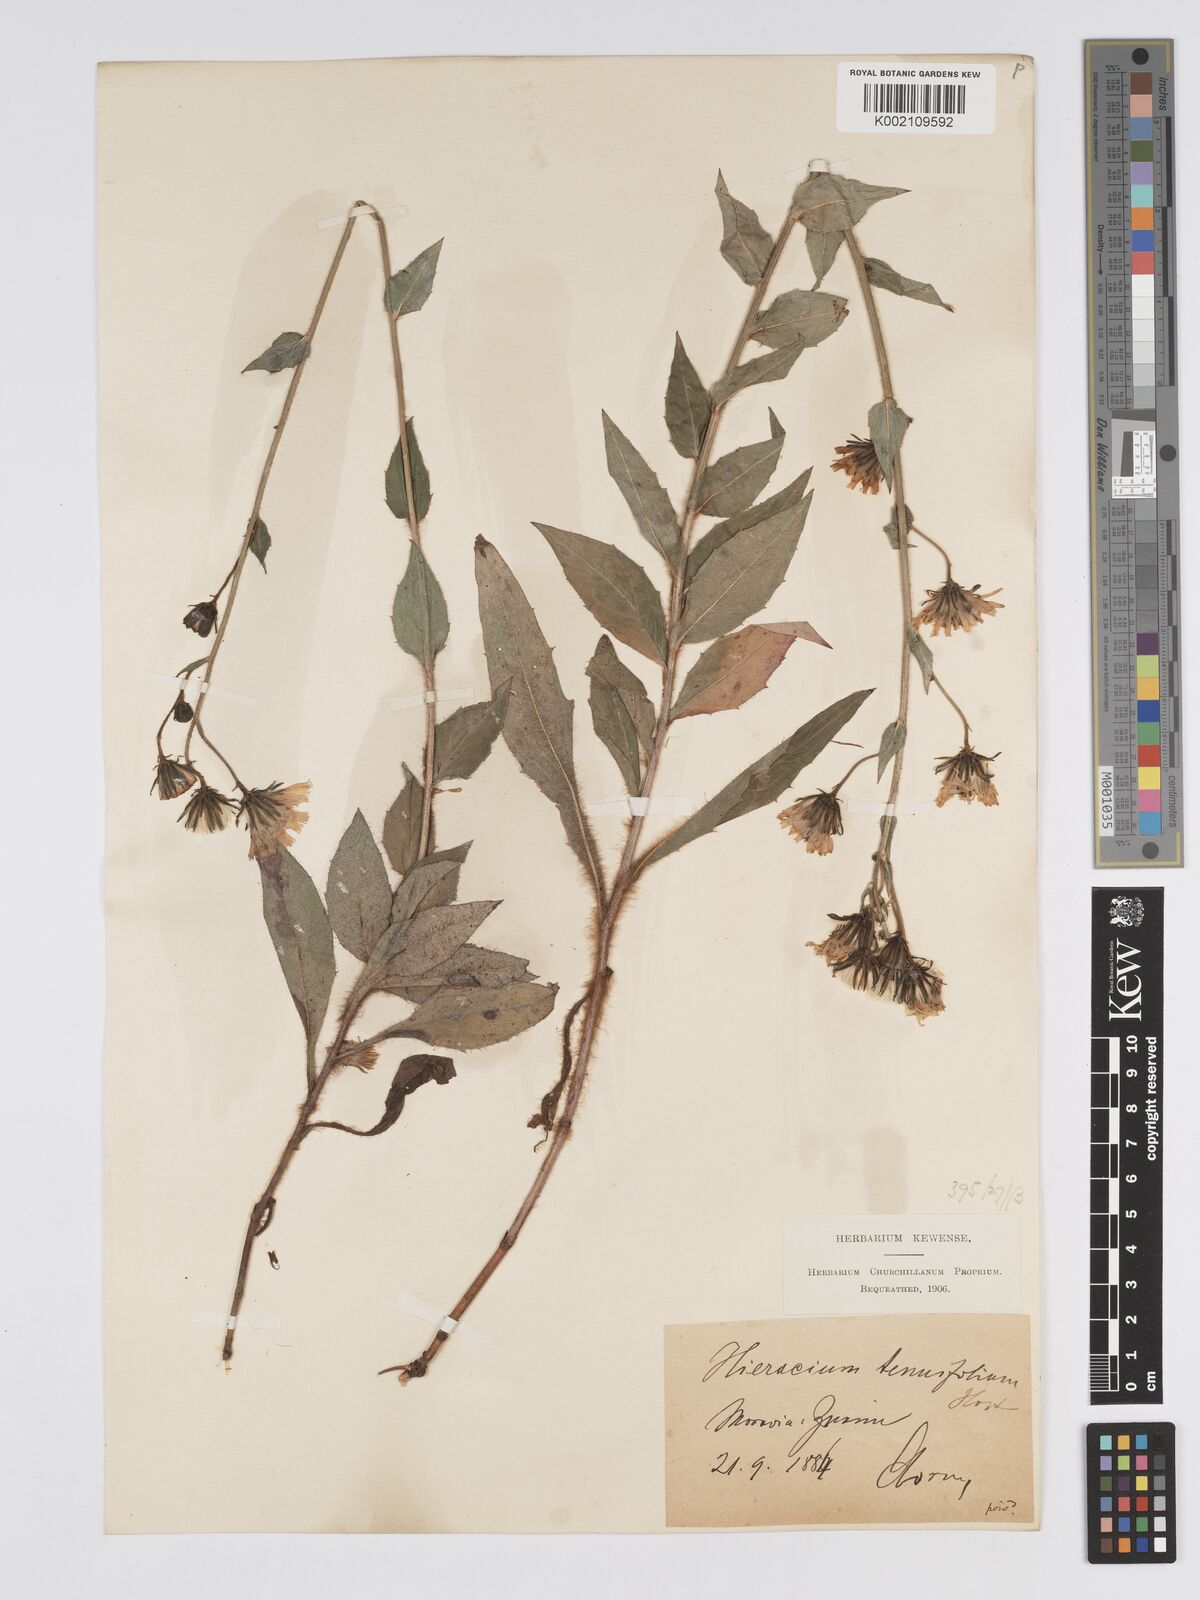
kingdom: Plantae
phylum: Tracheophyta
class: Magnoliopsida
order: Asterales
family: Asteraceae
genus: Hieracium
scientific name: Hieracium racemosum
